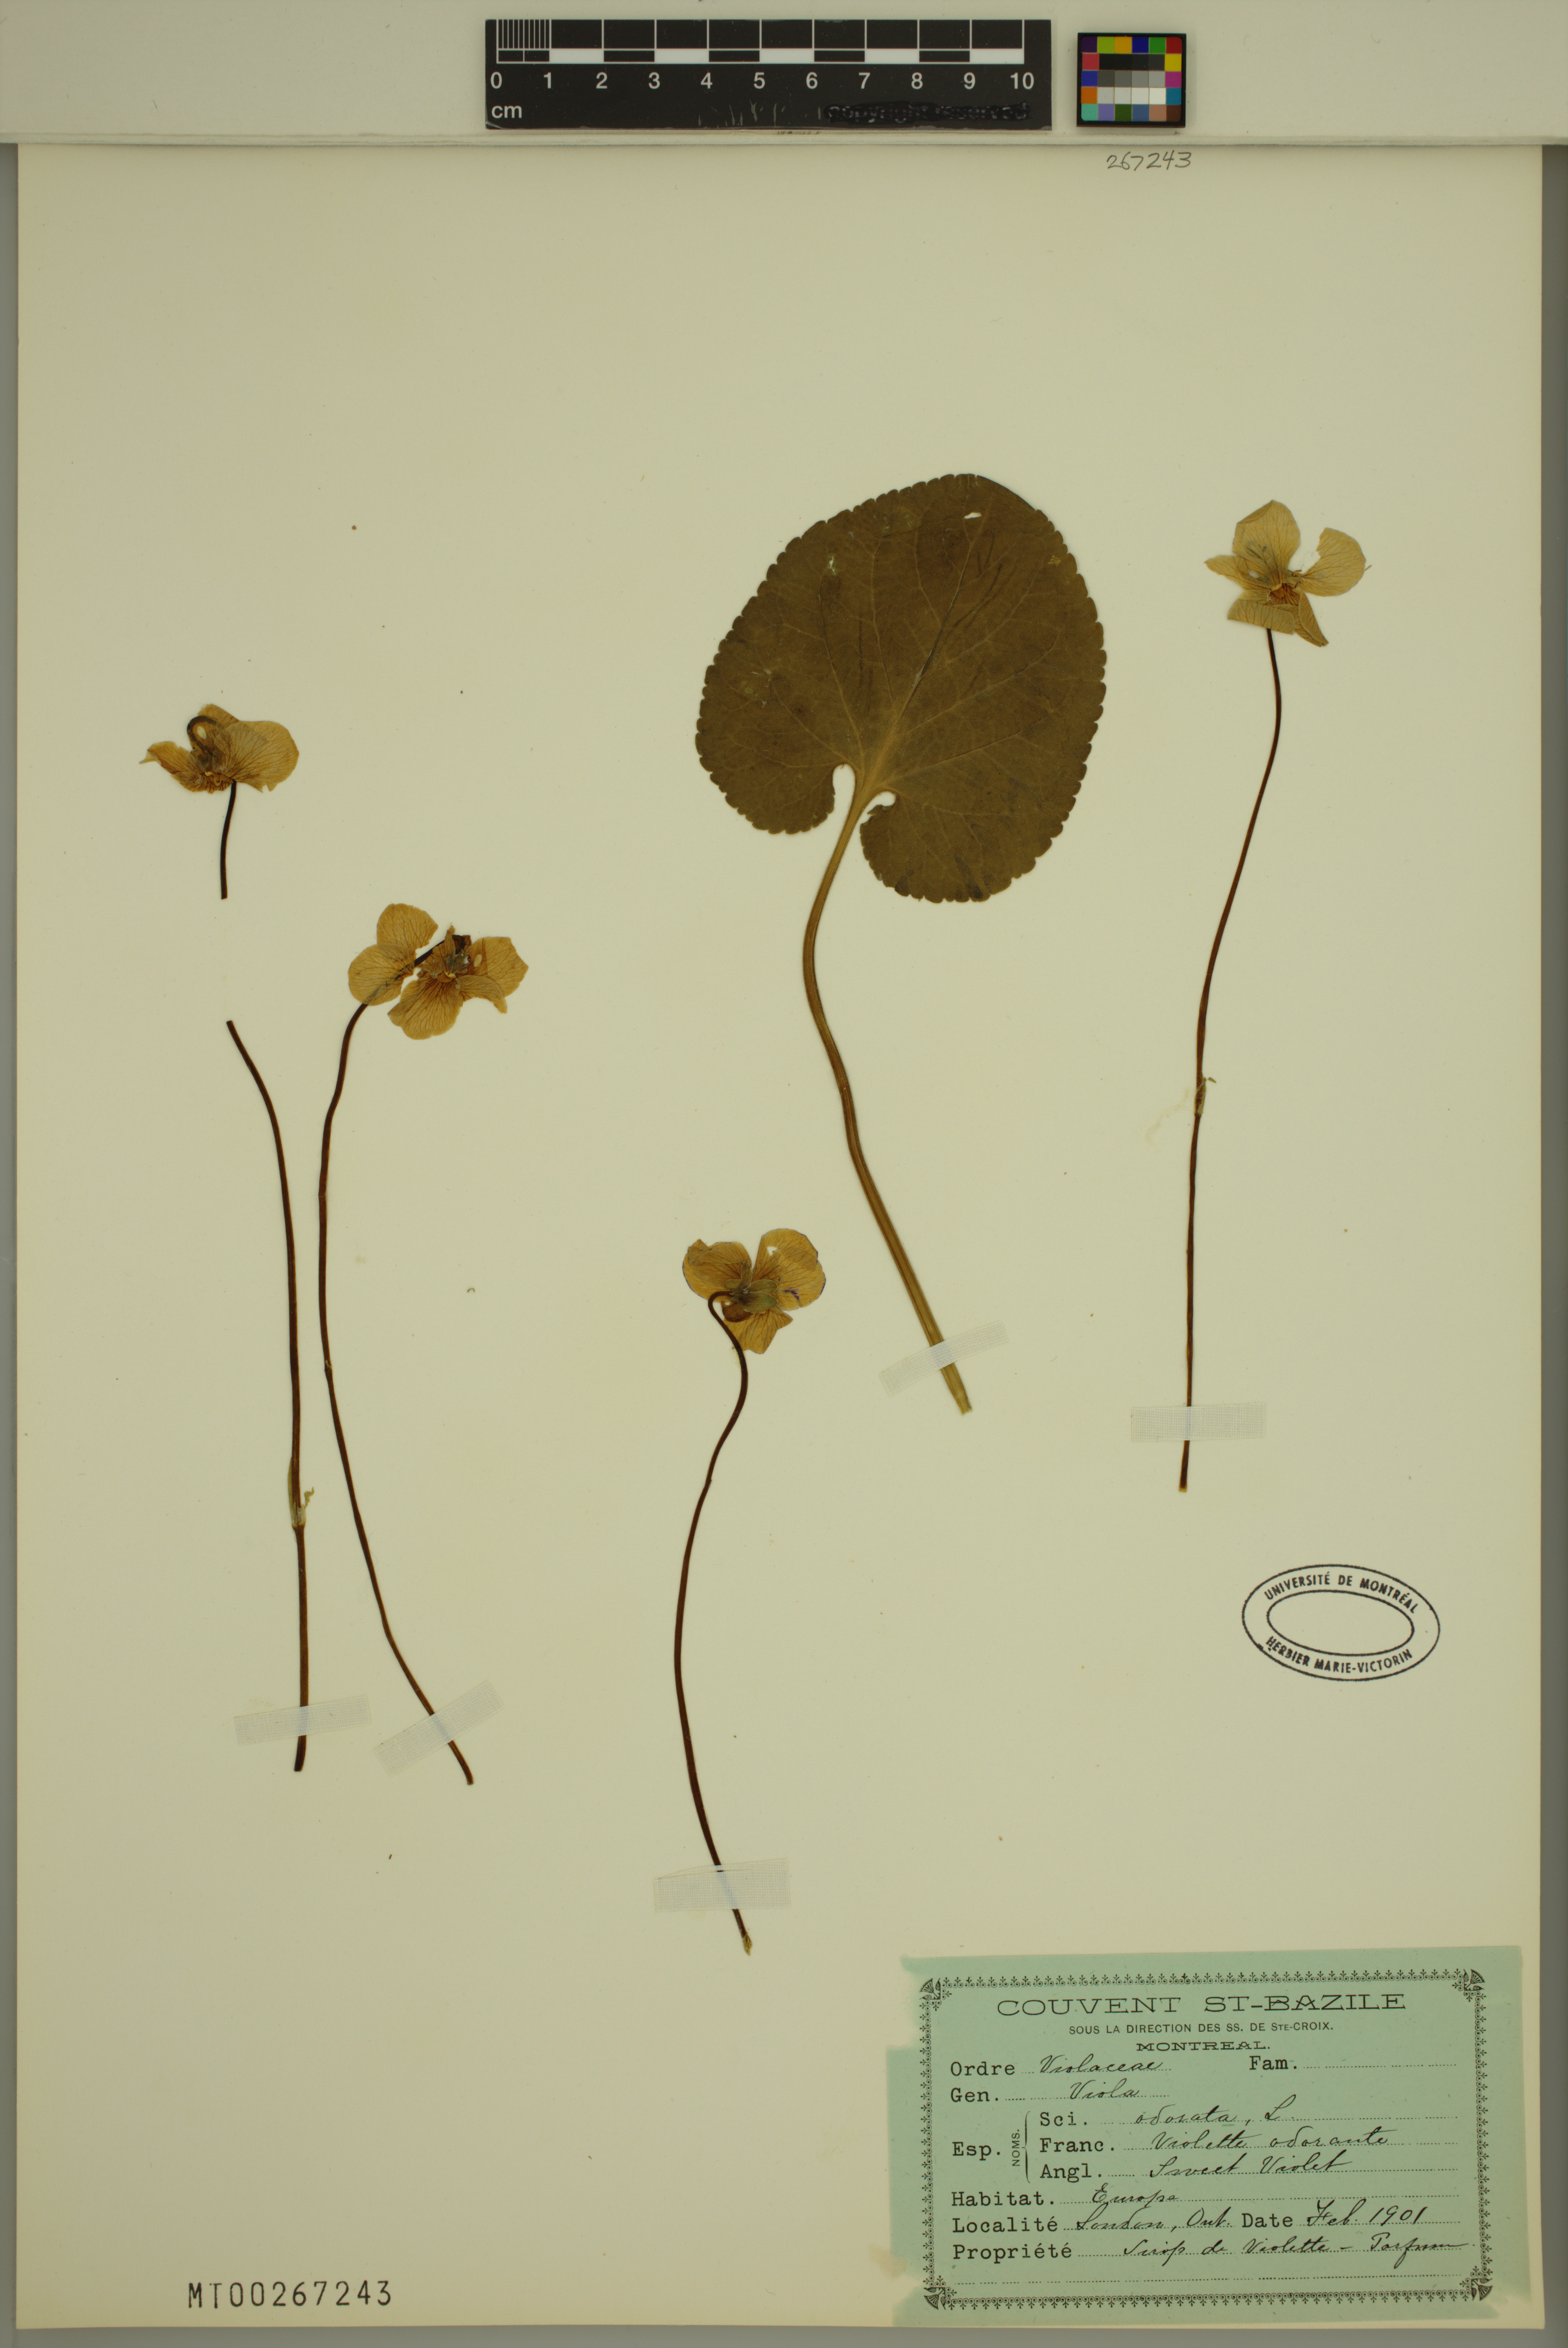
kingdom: Plantae
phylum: Tracheophyta
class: Magnoliopsida
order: Malpighiales
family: Violaceae
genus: Viola
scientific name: Viola odorata
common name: Sweet violet
